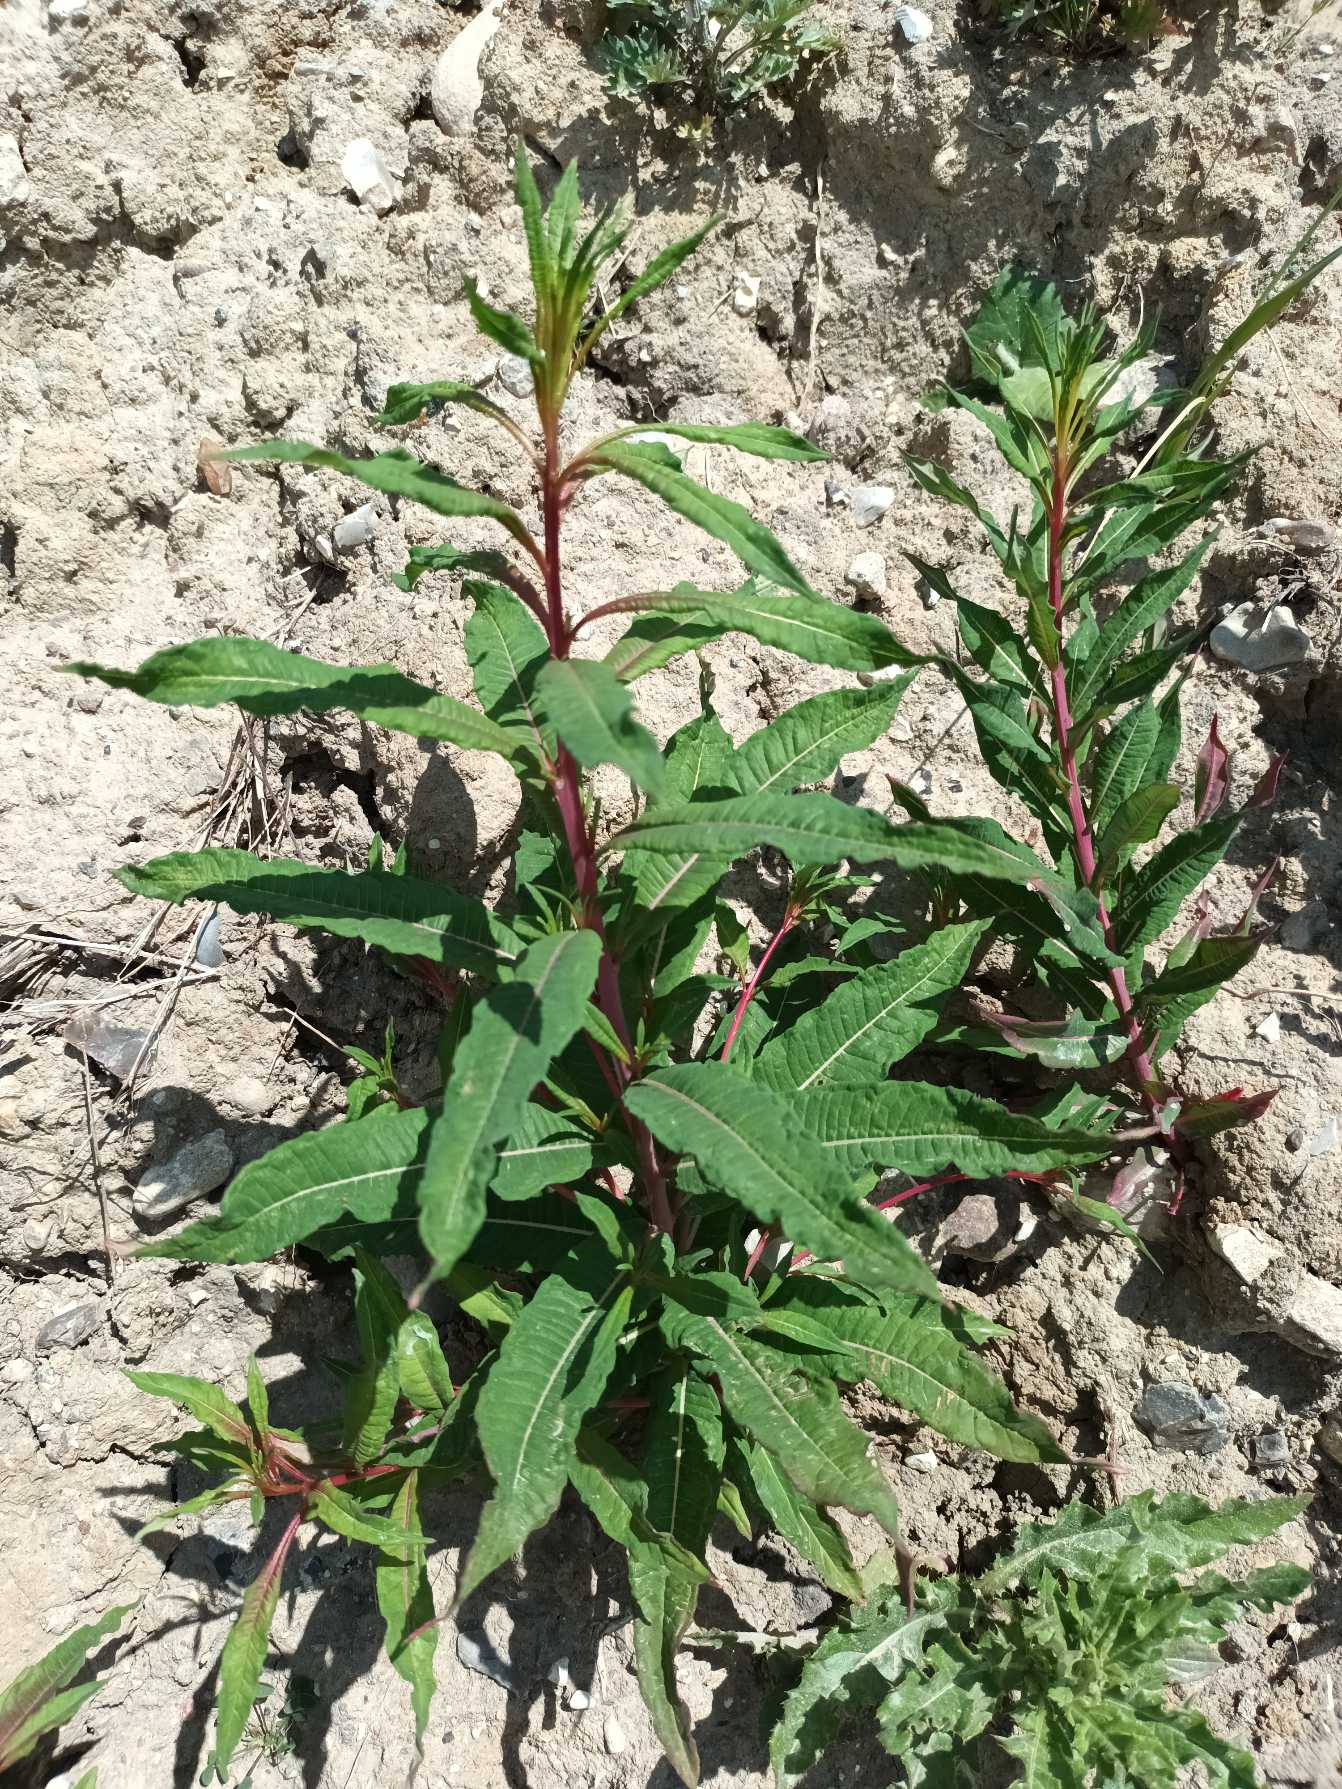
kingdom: Plantae
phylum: Tracheophyta
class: Magnoliopsida
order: Myrtales
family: Onagraceae
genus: Chamaenerion
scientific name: Chamaenerion angustifolium
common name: Gederams
